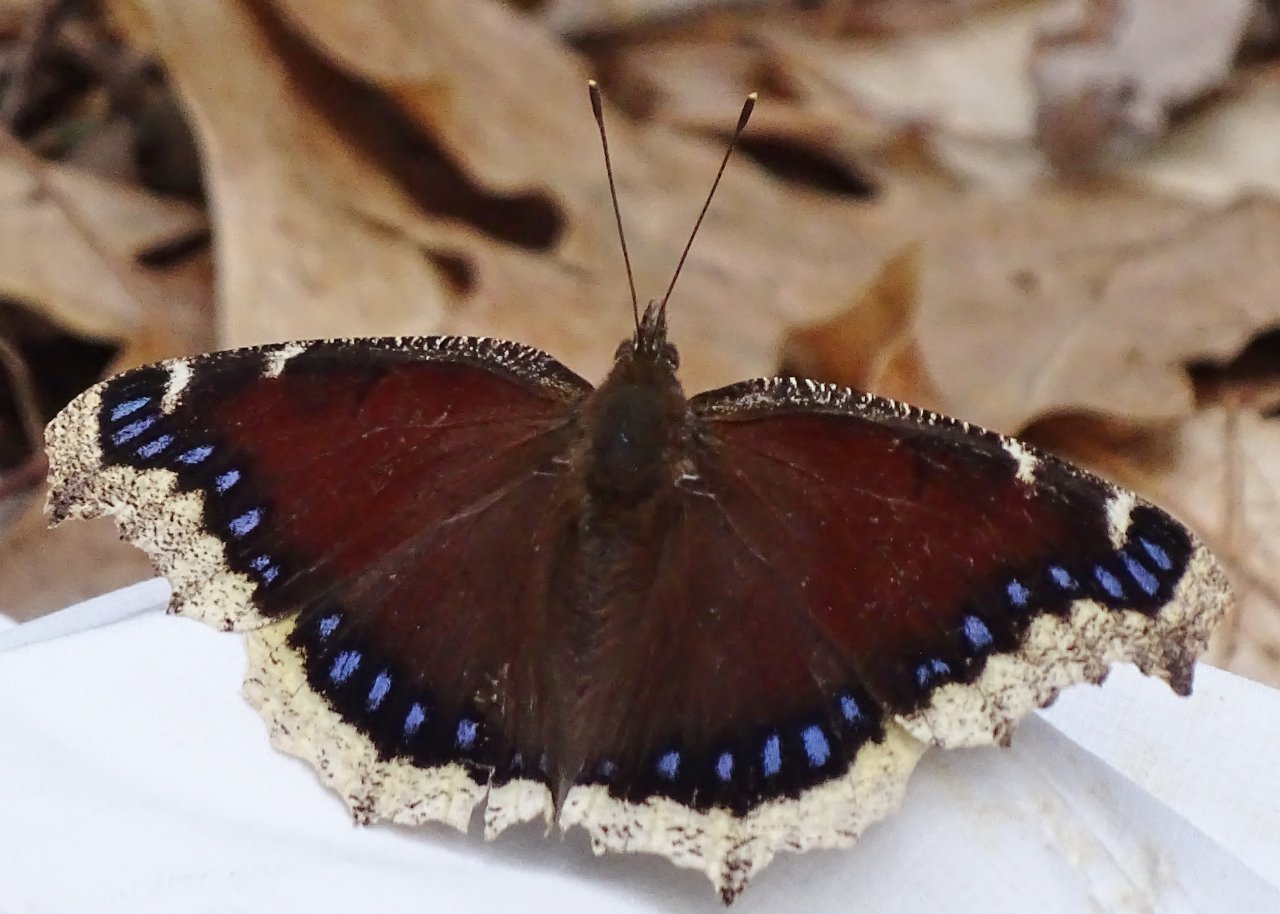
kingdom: Animalia
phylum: Arthropoda
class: Insecta
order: Lepidoptera
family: Nymphalidae
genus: Nymphalis
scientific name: Nymphalis antiopa
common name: Mourning Cloak
